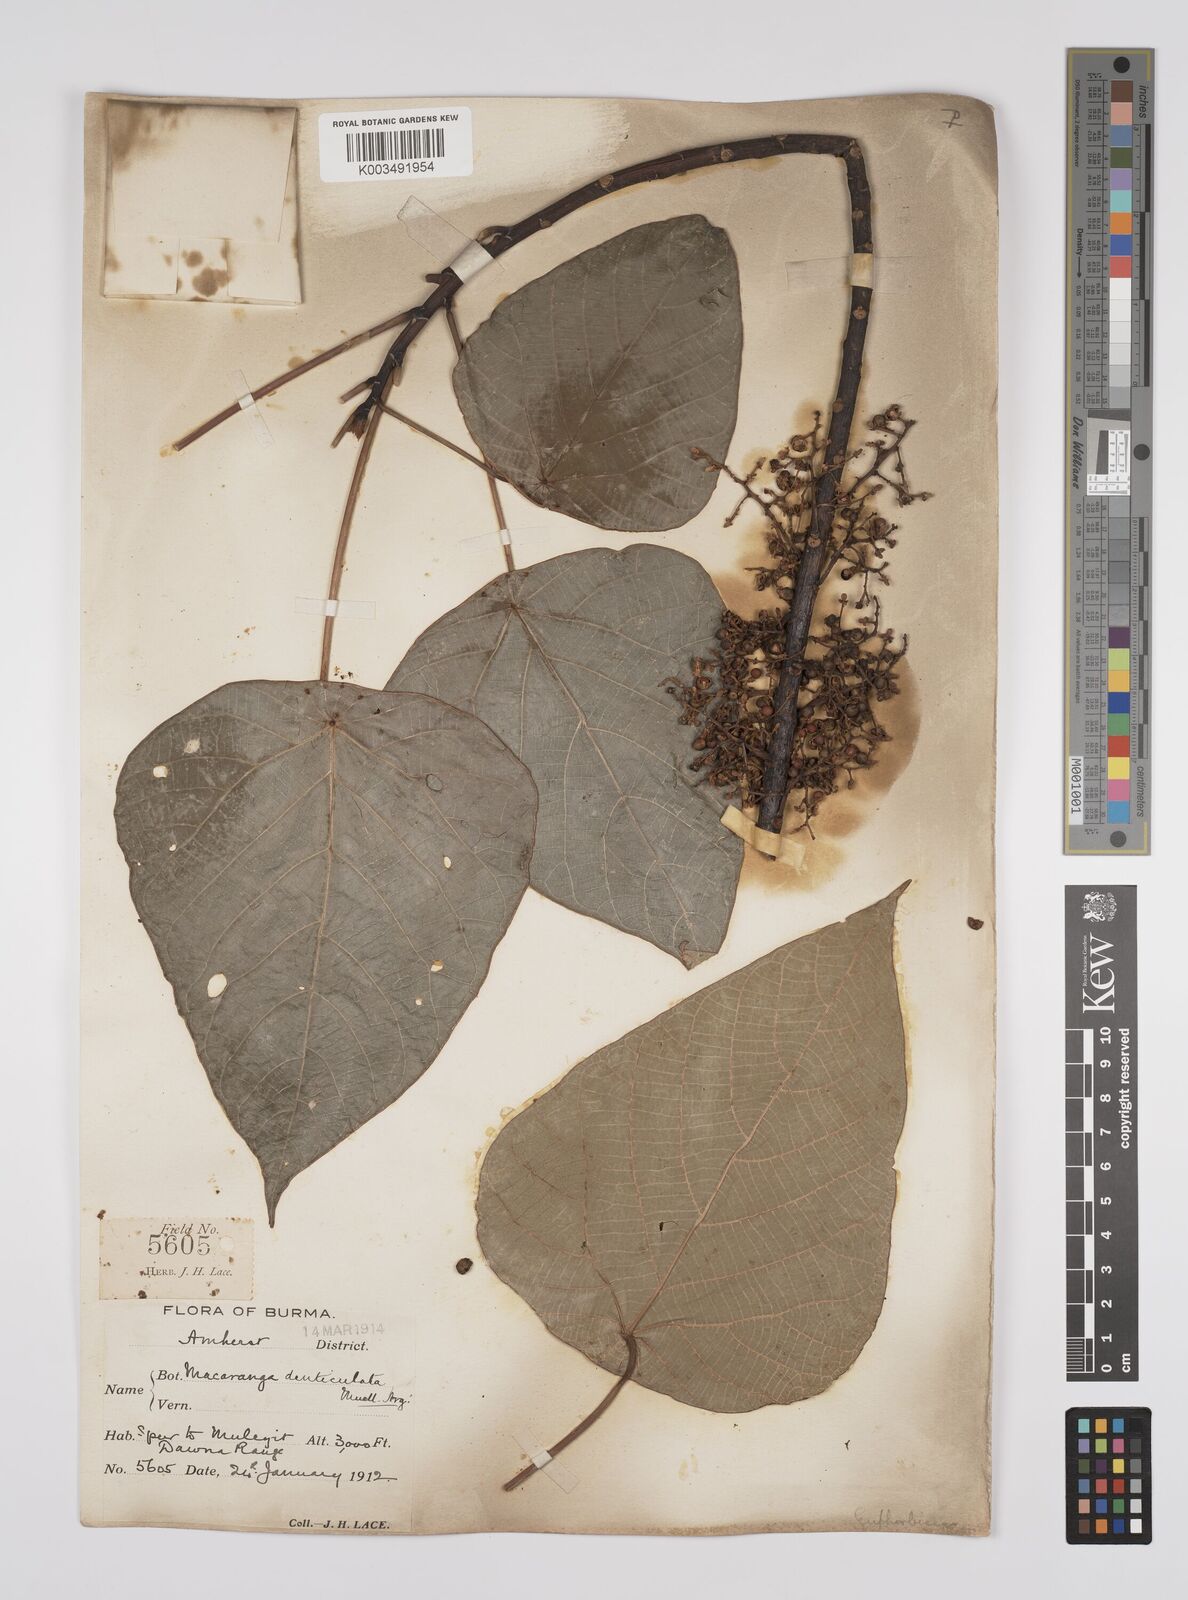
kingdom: Plantae
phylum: Tracheophyta
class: Magnoliopsida
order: Malpighiales
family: Euphorbiaceae
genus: Macaranga
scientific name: Macaranga denticulata
